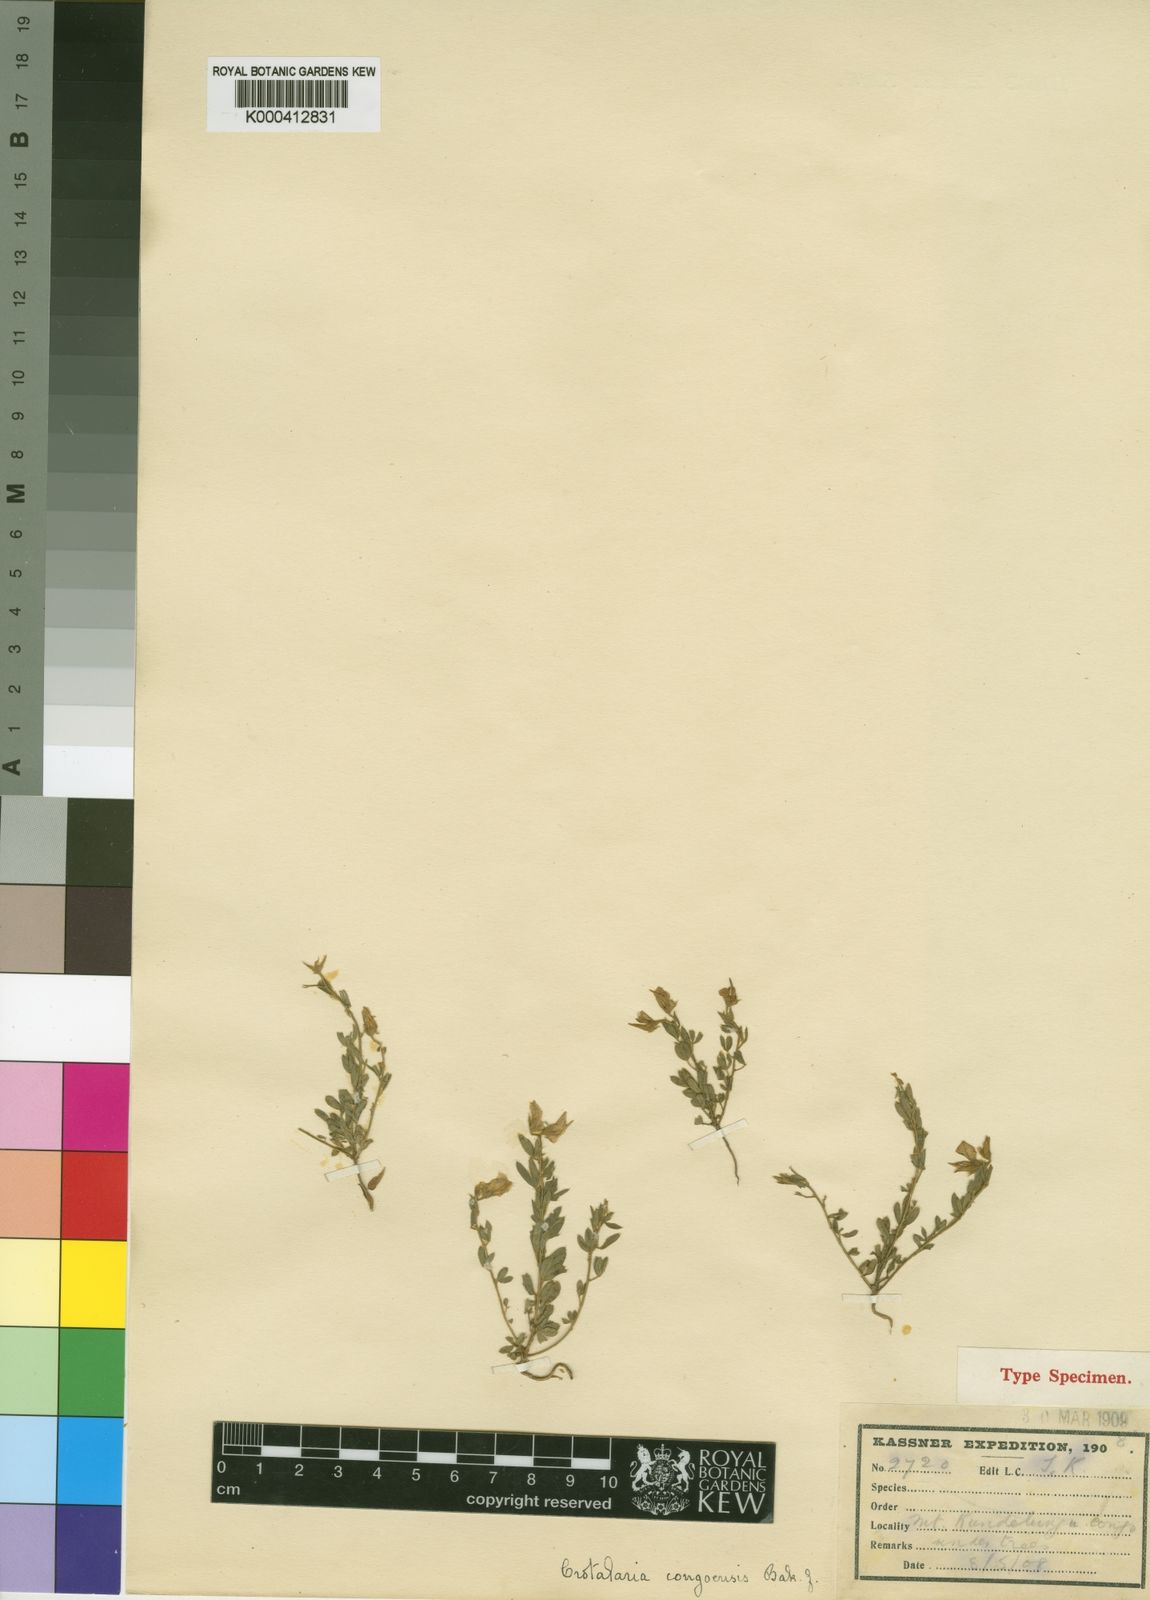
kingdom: Plantae
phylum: Tracheophyta
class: Magnoliopsida
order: Fabales
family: Fabaceae
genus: Crotalaria
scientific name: Crotalaria congoensis
